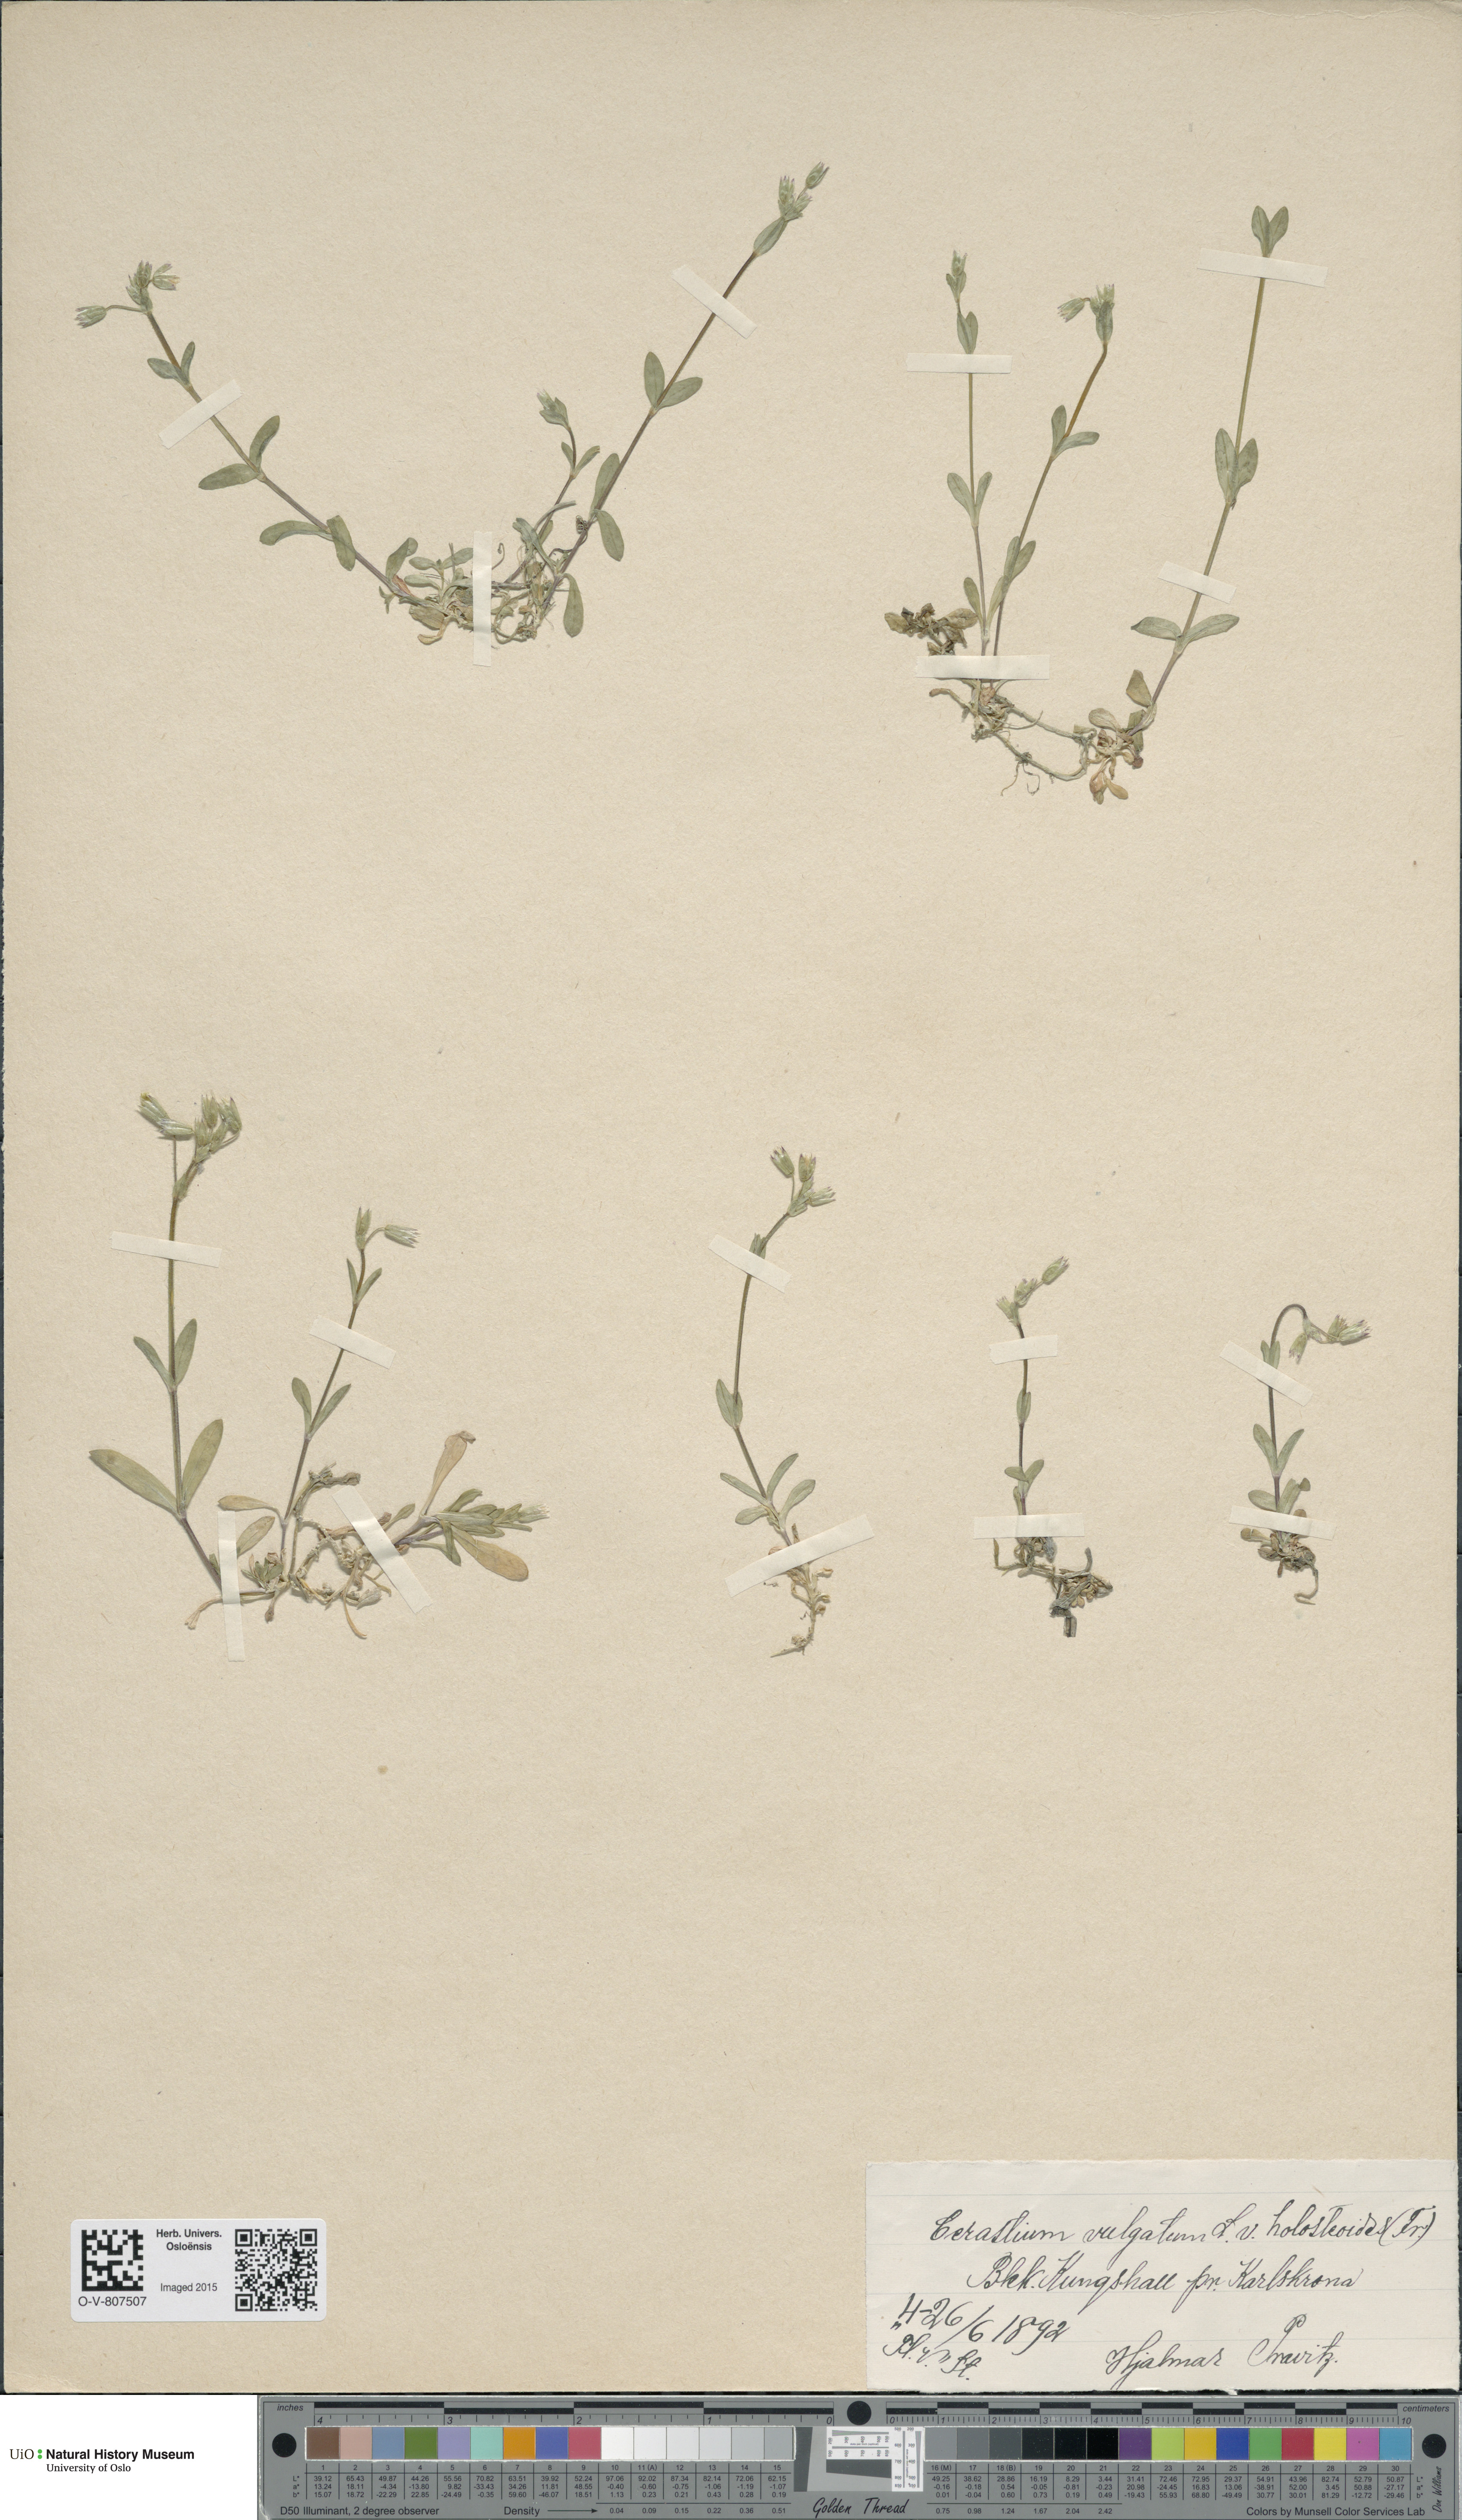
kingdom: Plantae
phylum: Tracheophyta
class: Magnoliopsida
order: Caryophyllales
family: Caryophyllaceae
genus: Cerastium
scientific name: Cerastium holosteoides
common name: Big chickweed
